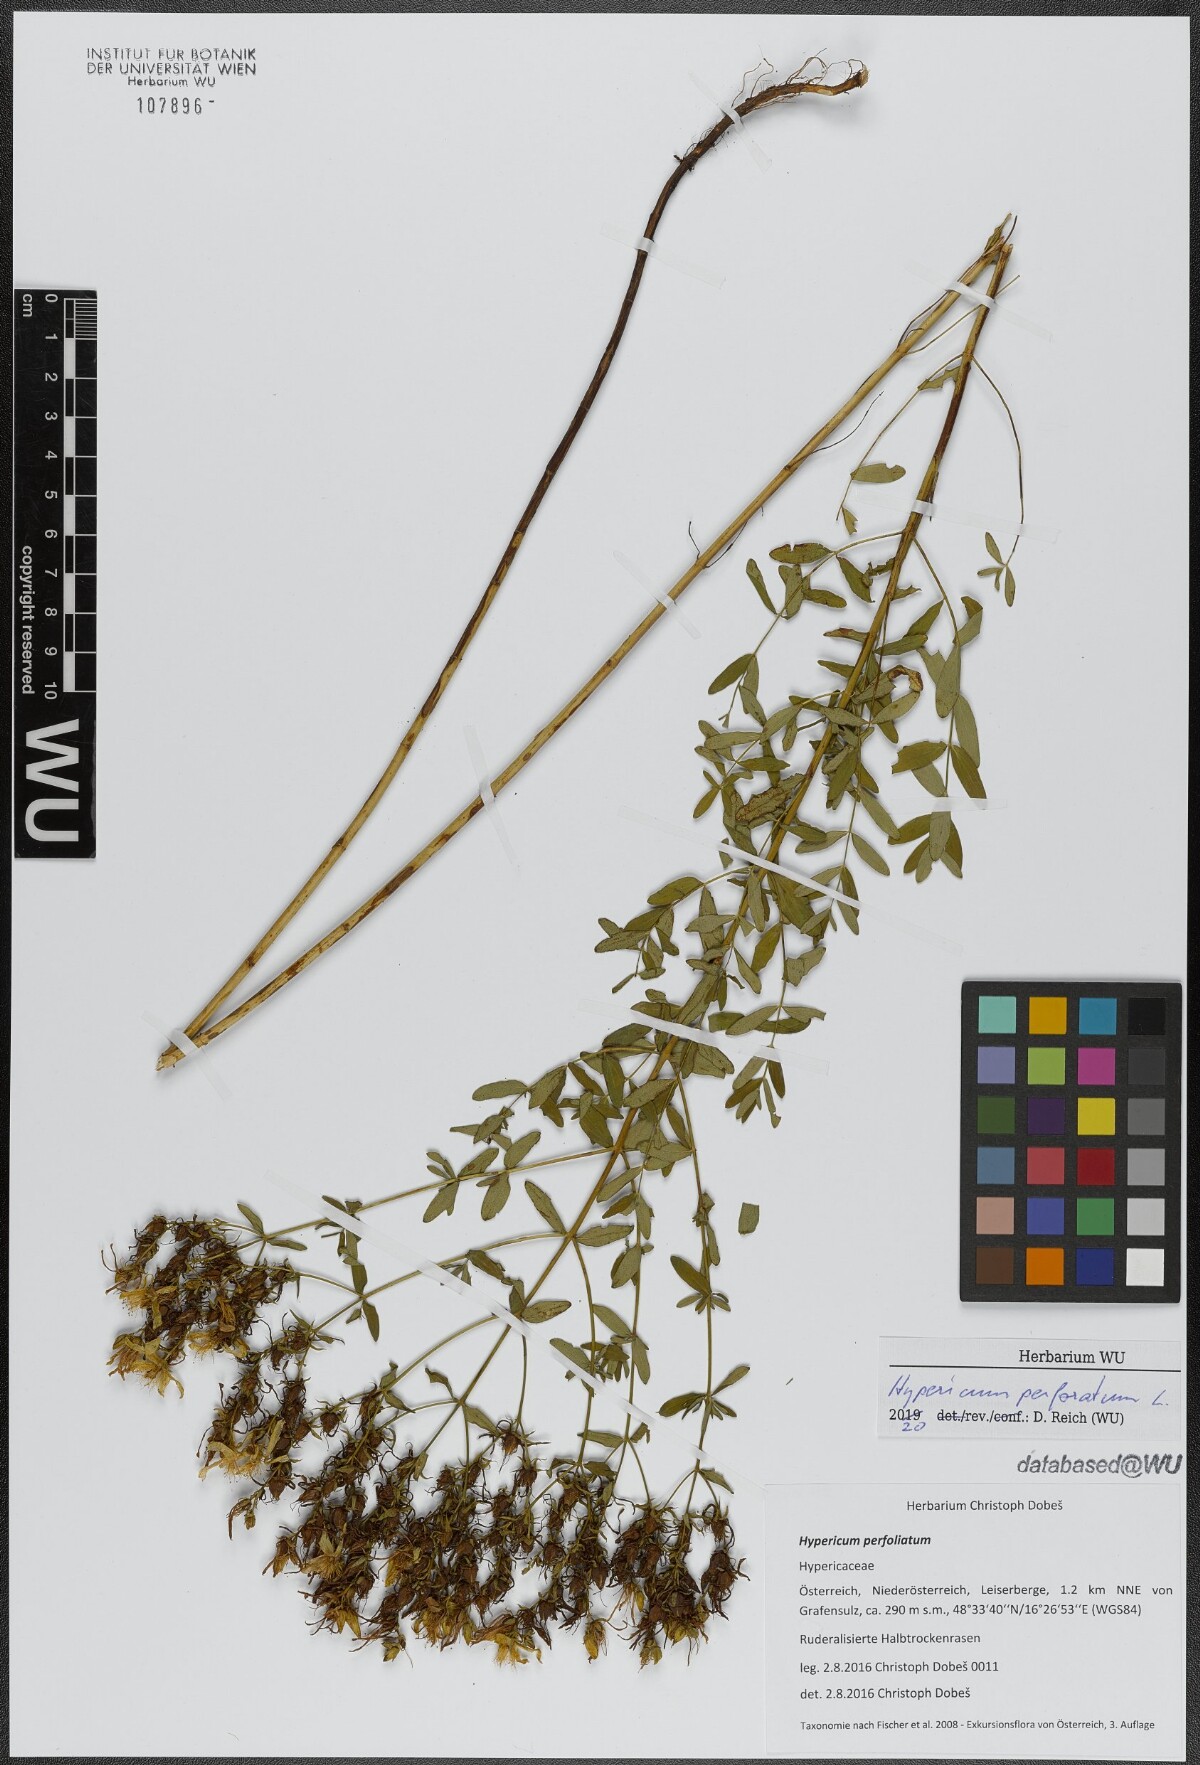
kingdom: Plantae
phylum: Tracheophyta
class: Magnoliopsida
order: Malpighiales
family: Hypericaceae
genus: Hypericum
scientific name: Hypericum perforatum
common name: Common st. johnswort
